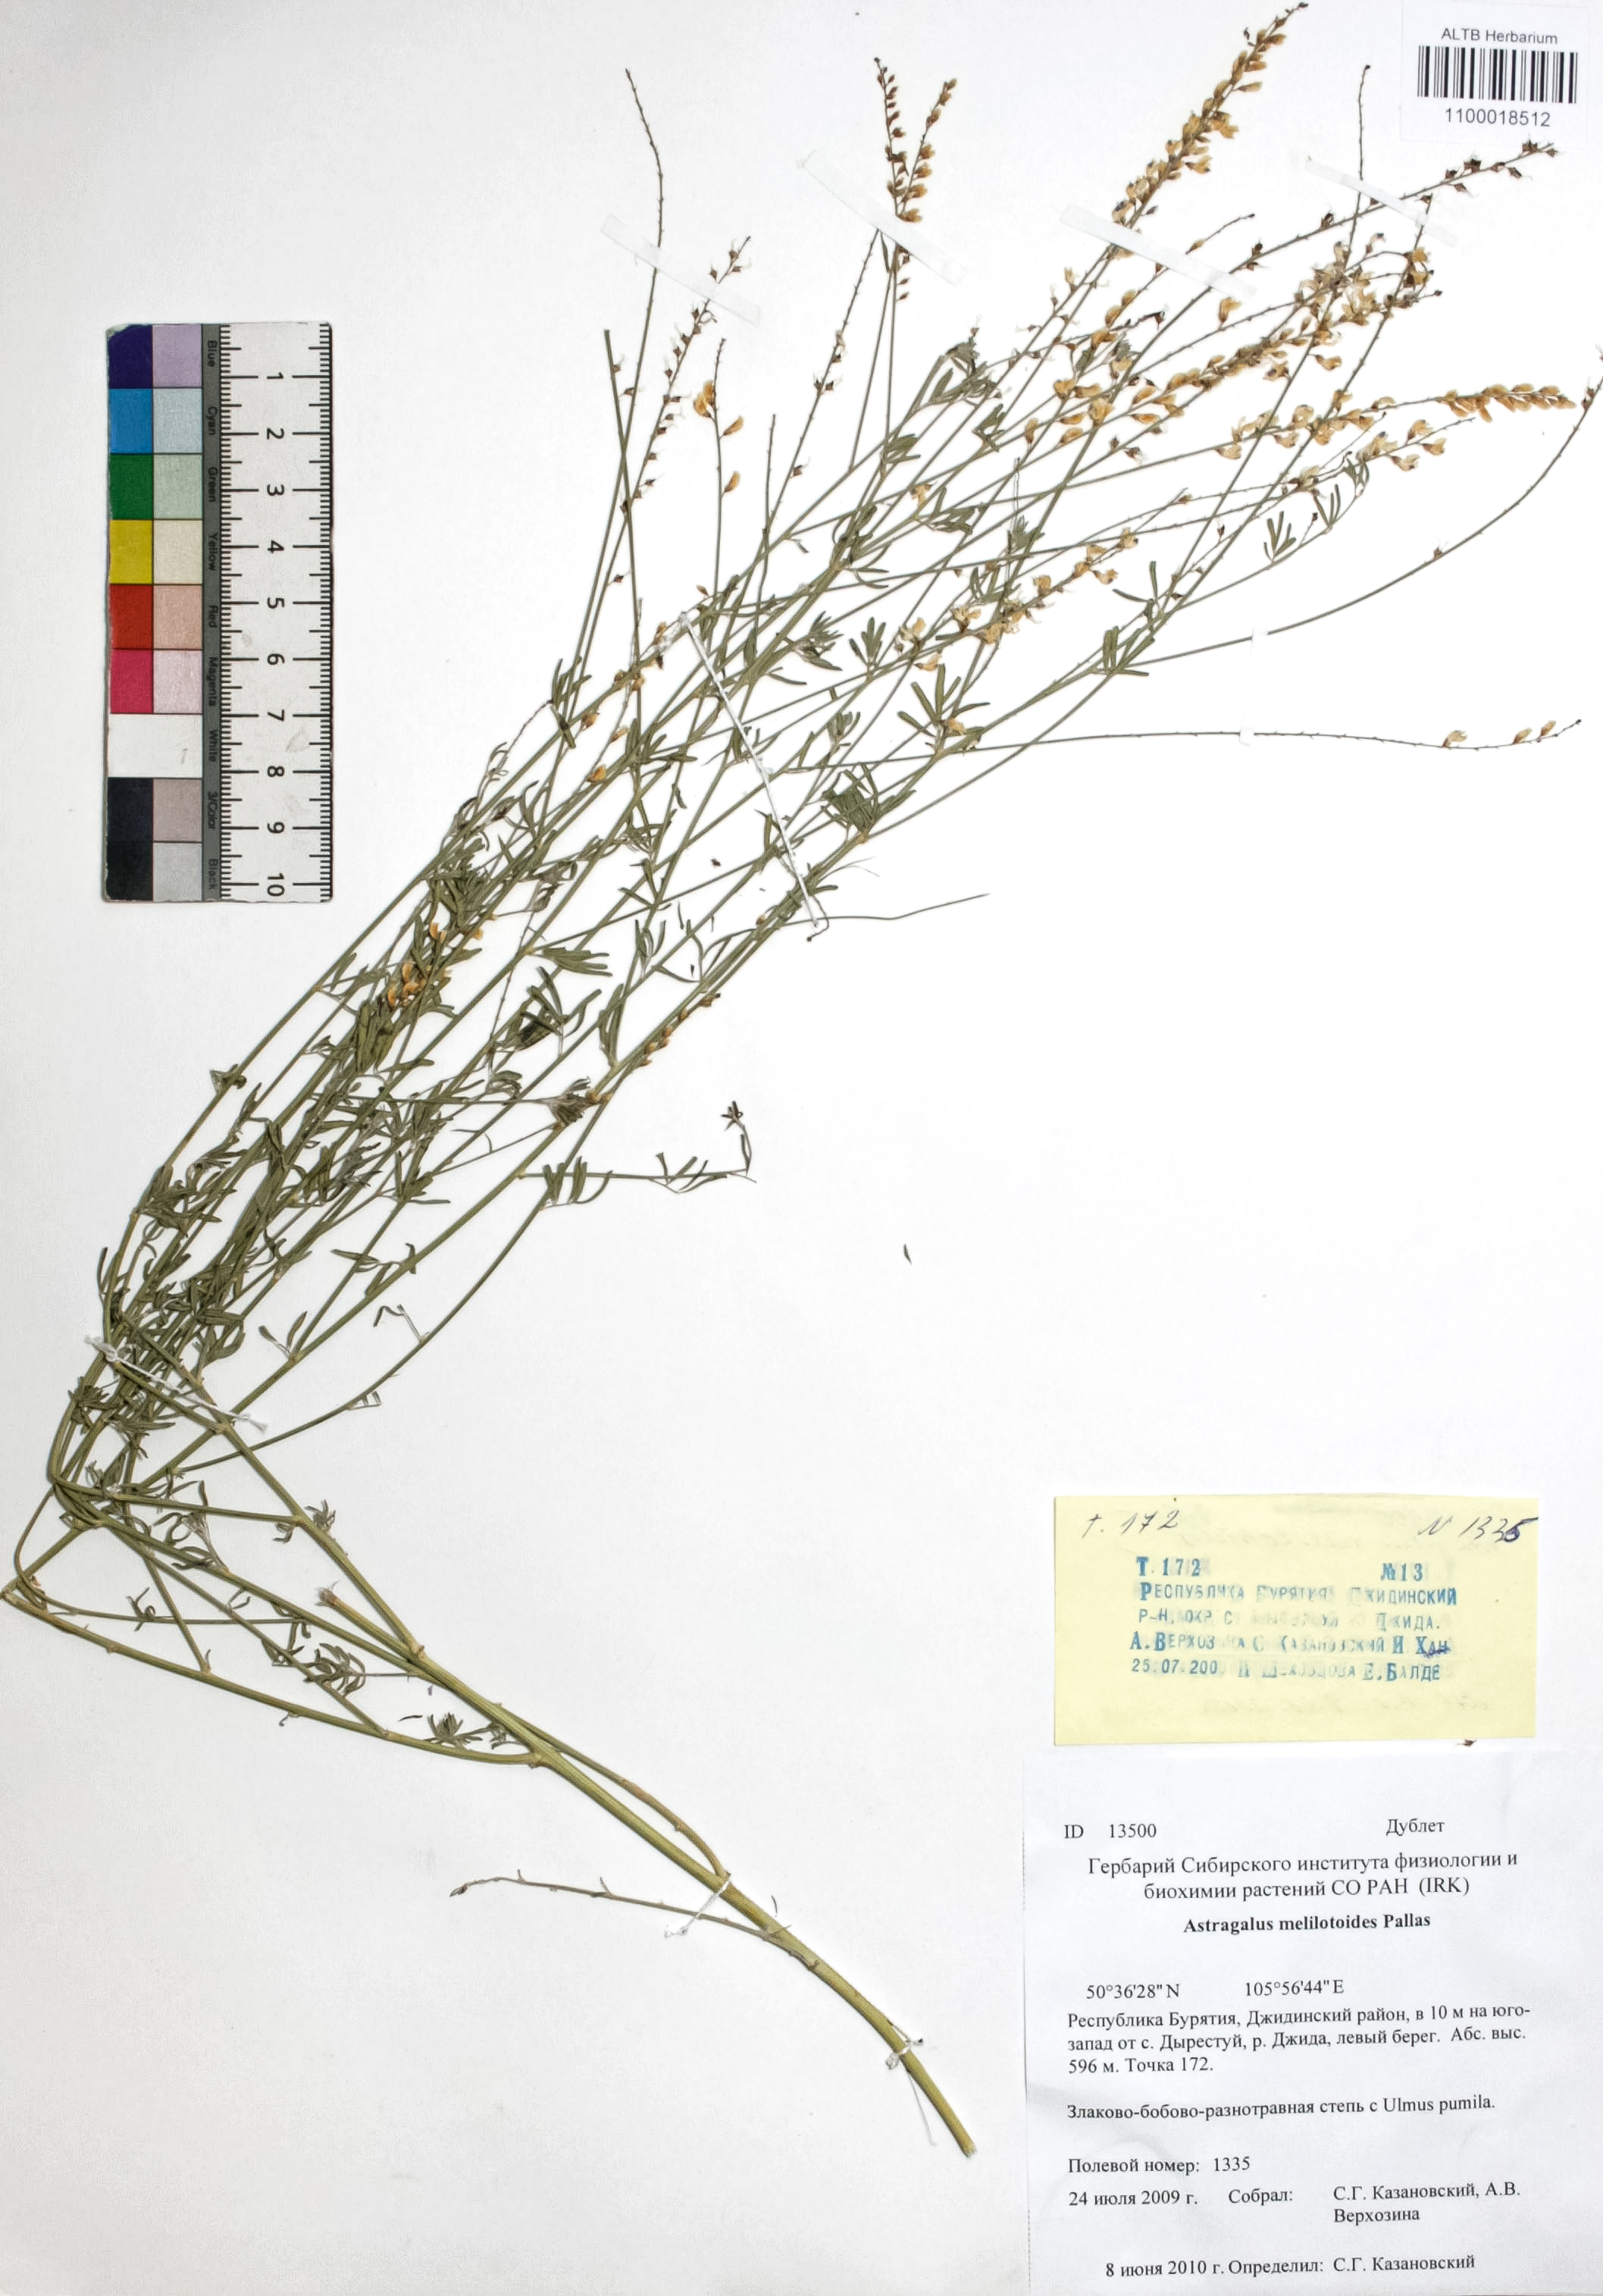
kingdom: Plantae
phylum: Tracheophyta
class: Magnoliopsida
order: Fabales
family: Fabaceae
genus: Astragalus
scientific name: Astragalus melilotoides
